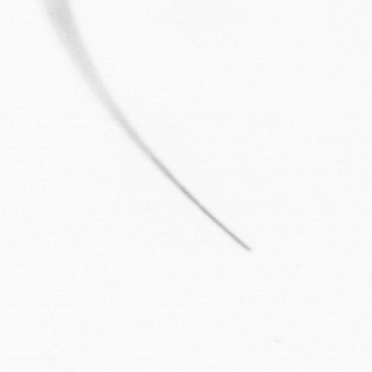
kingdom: Chromista
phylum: Ochrophyta
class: Bacillariophyceae
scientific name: Bacillariophyceae
